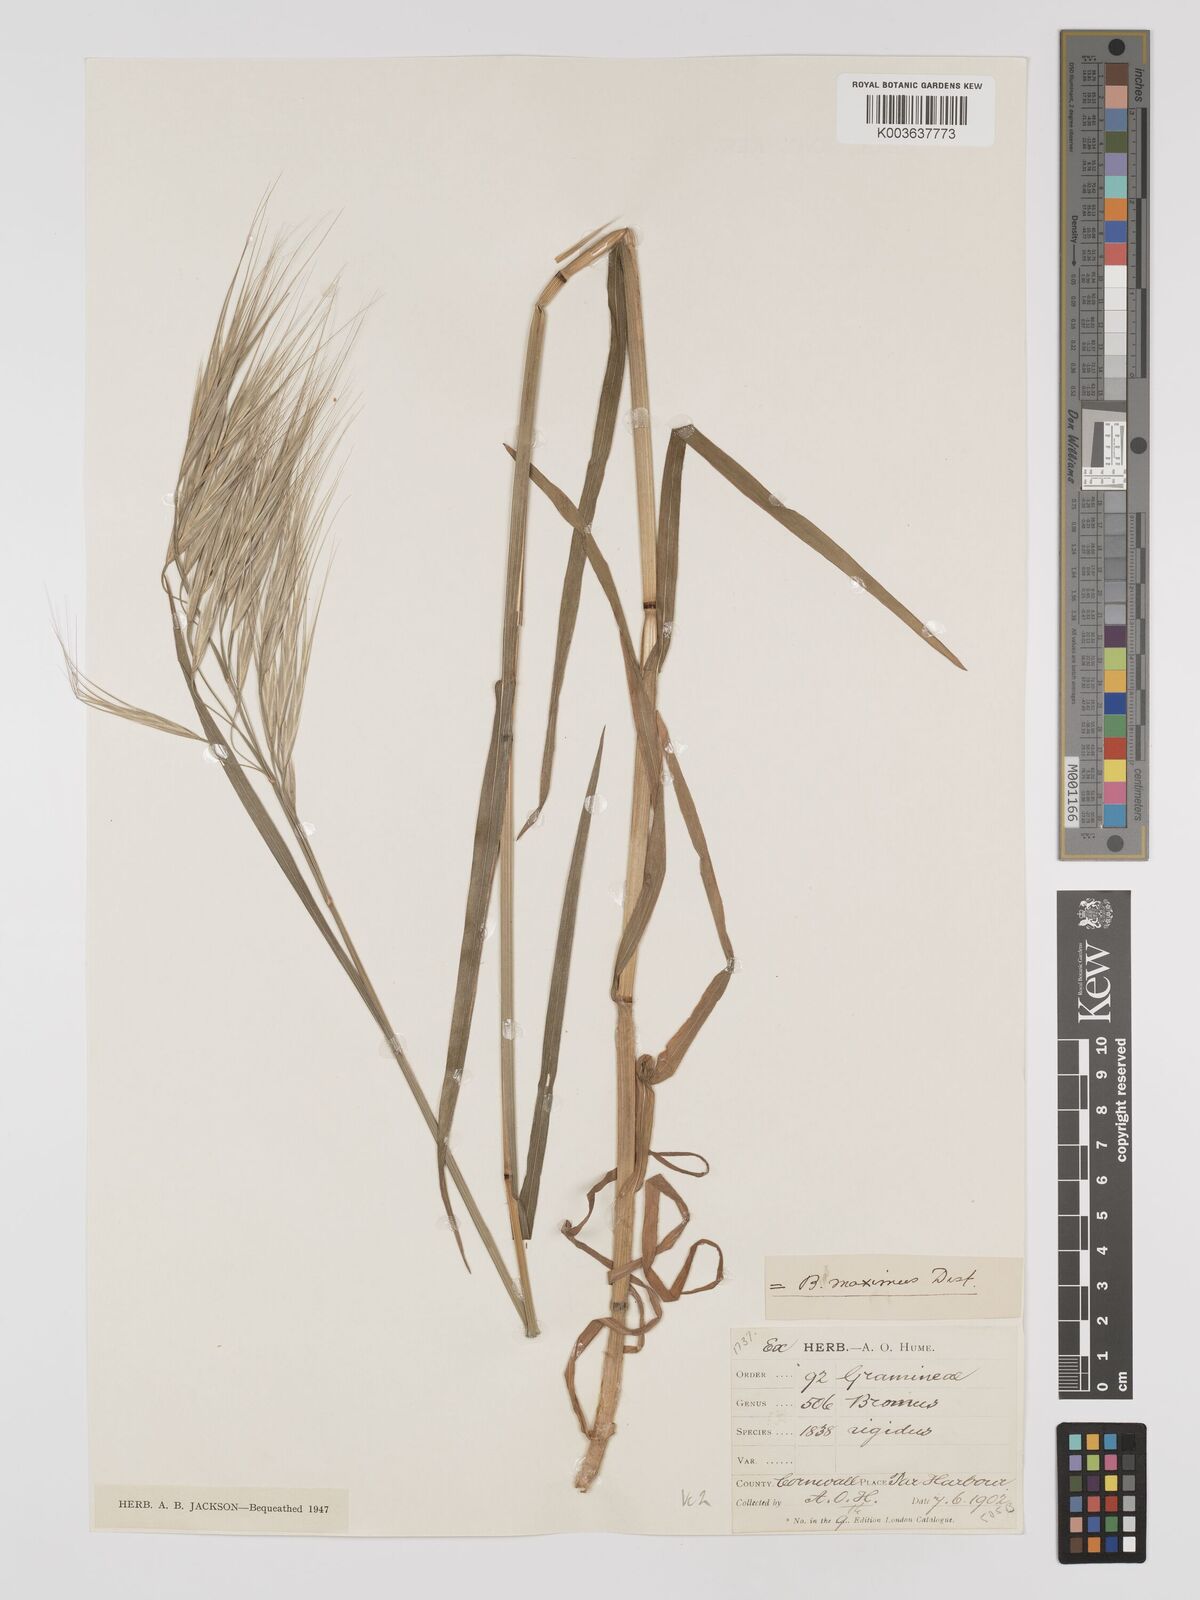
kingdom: Plantae
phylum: Tracheophyta
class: Liliopsida
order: Poales
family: Poaceae
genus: Bromus
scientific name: Bromus
